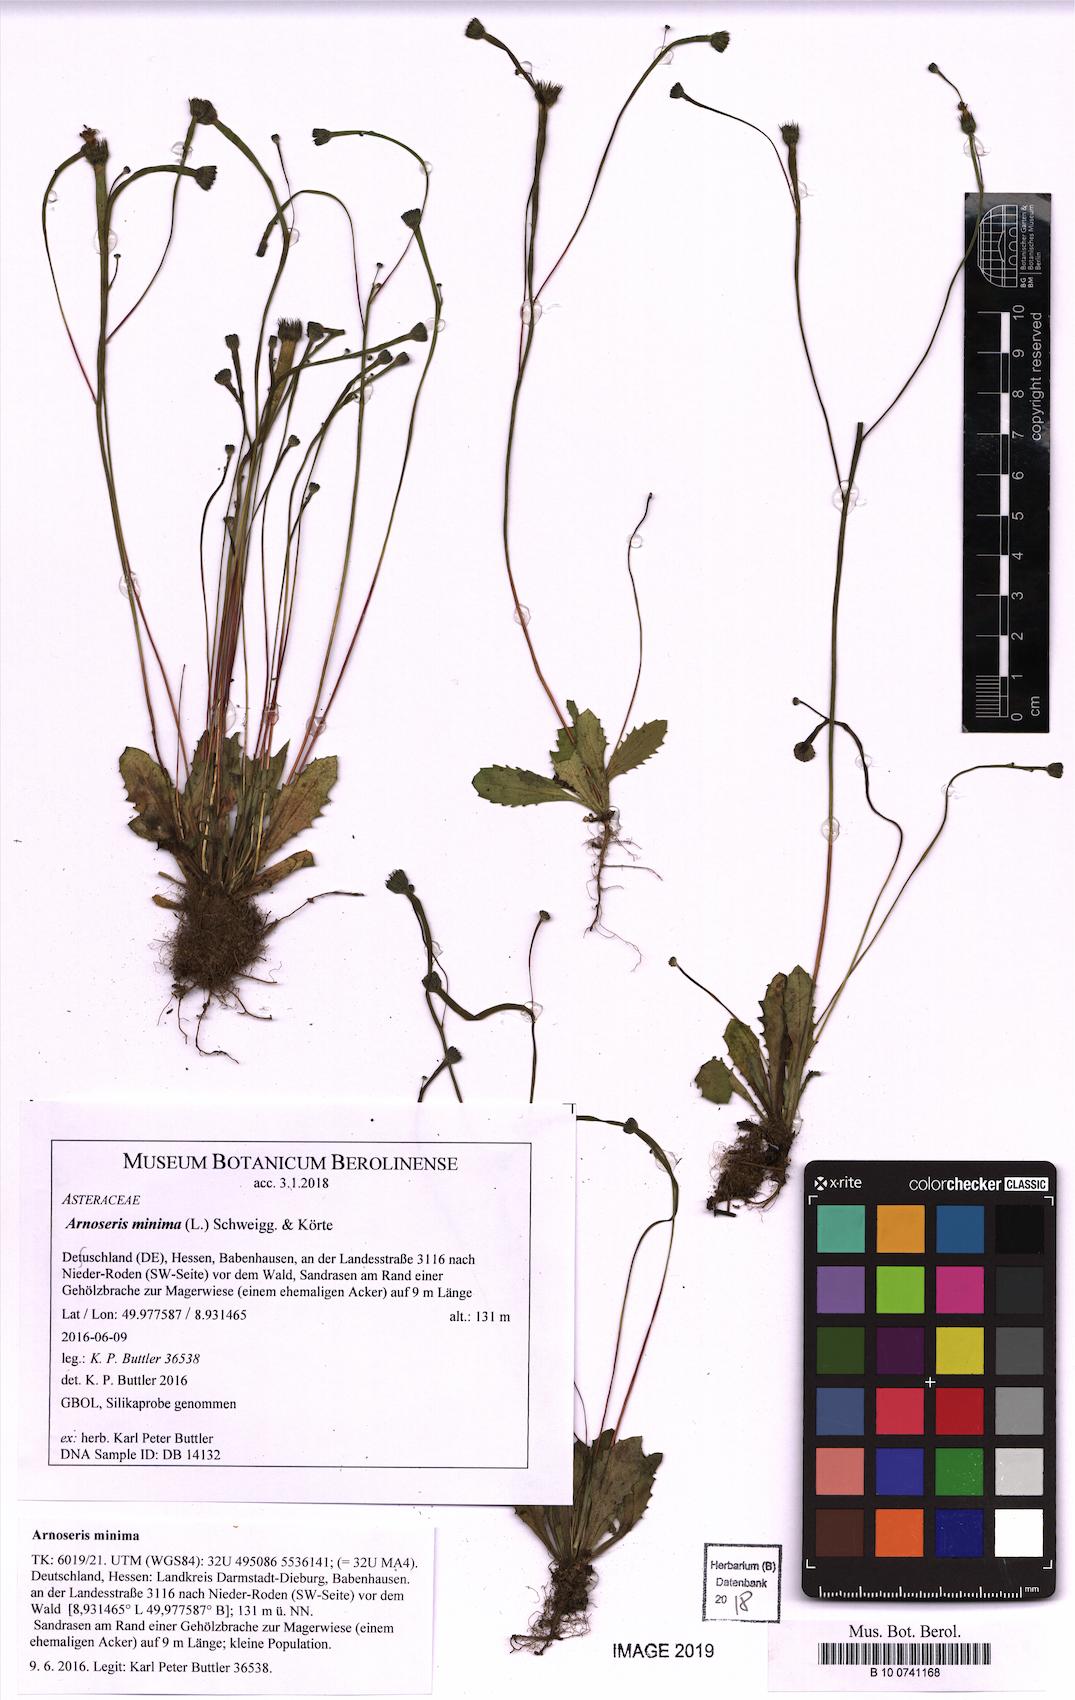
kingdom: Plantae
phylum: Tracheophyta
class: Magnoliopsida
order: Asterales
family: Asteraceae
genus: Arnoseris
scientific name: Arnoseris minima
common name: Lamb's succory
